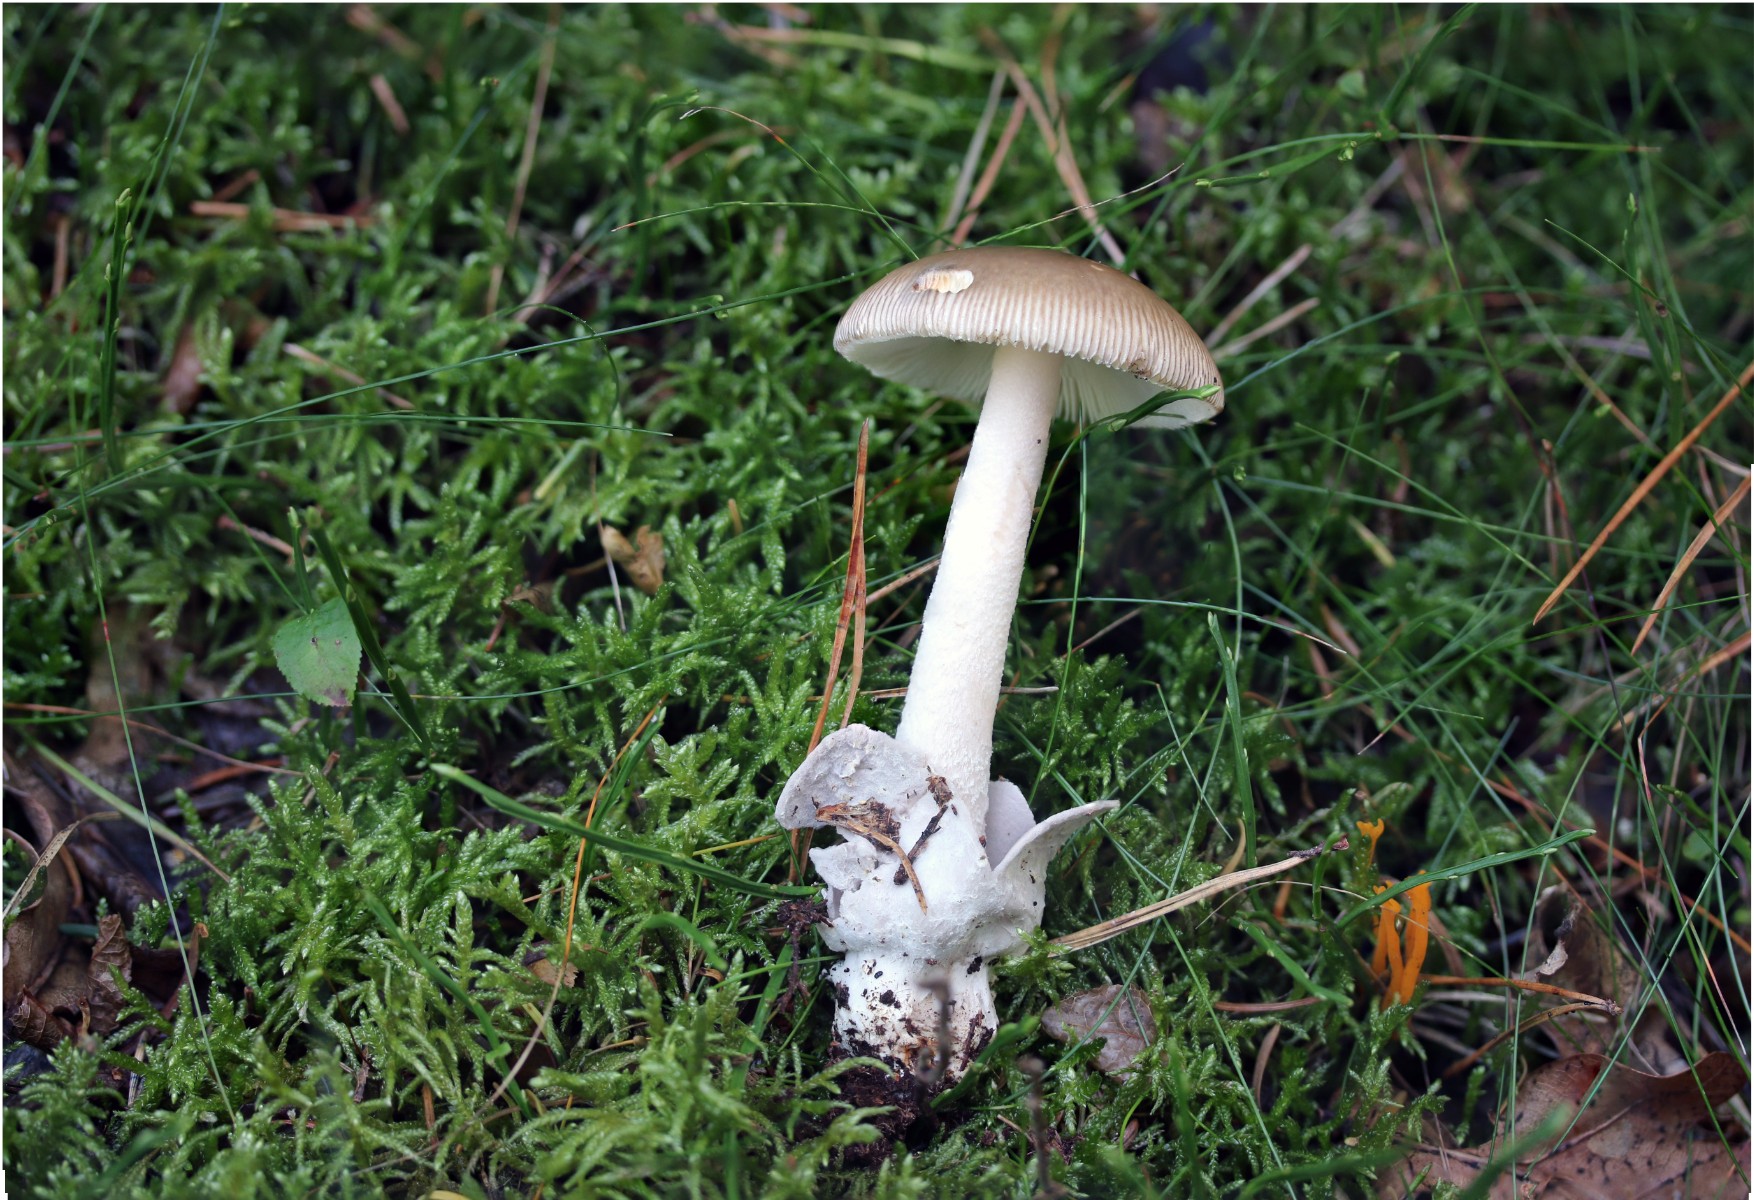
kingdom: Fungi
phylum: Basidiomycota
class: Agaricomycetes
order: Agaricales
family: Amanitaceae
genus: Amanita
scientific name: Amanita submembranacea
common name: gråspættet kam-fluesvamp
